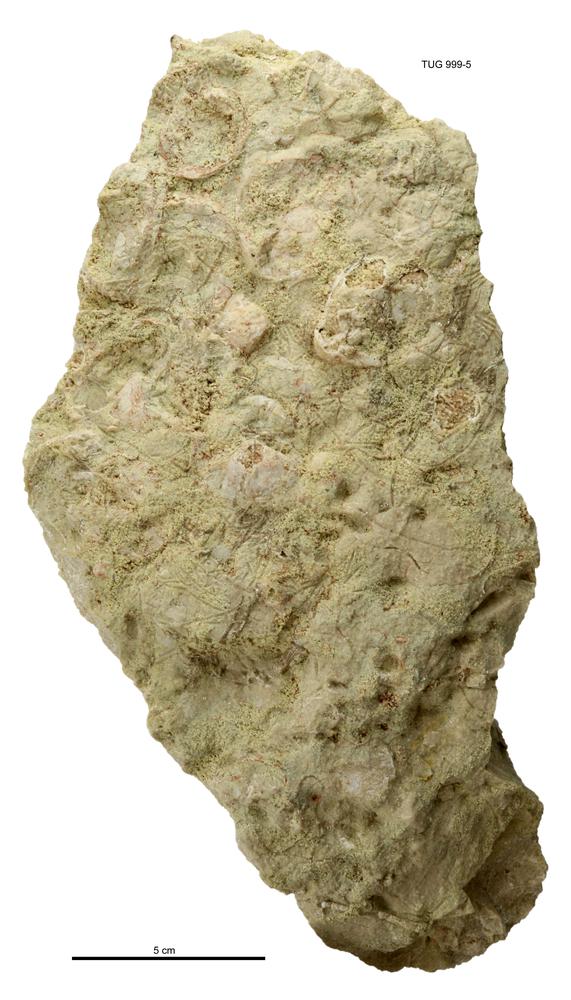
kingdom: Animalia
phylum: Echinodermata
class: Crinoidea
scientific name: Crinoidea
